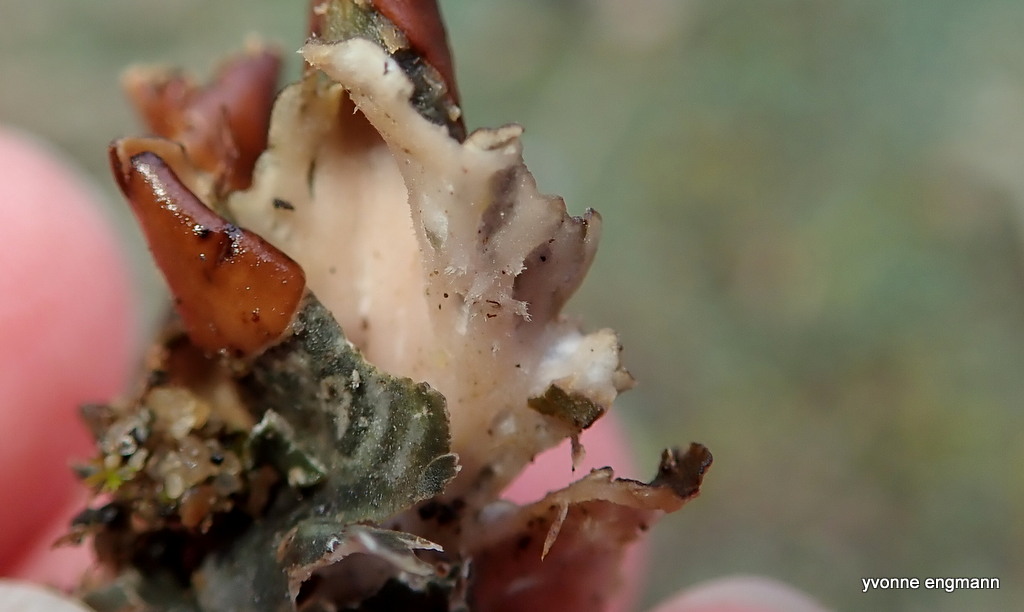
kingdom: Fungi
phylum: Ascomycota
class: Lecanoromycetes
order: Peltigerales
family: Peltigeraceae
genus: Peltigera
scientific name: Peltigera didactyla
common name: liden skjoldlav
